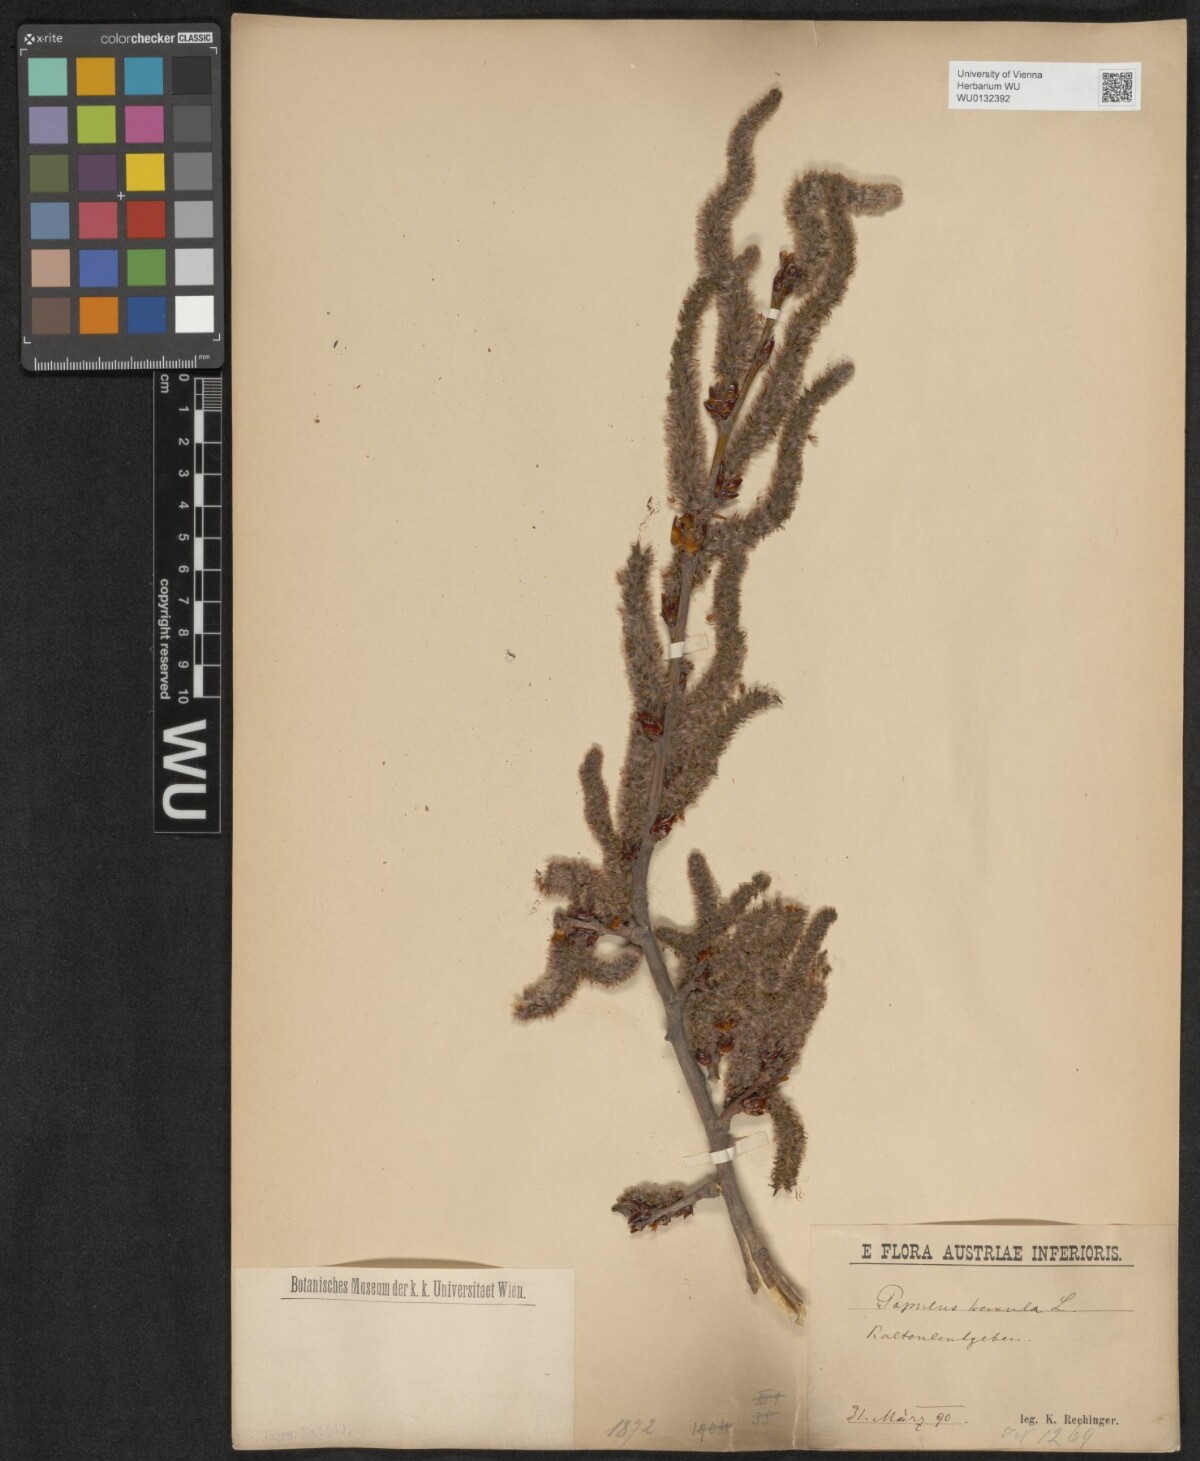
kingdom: Plantae
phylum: Tracheophyta
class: Magnoliopsida
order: Malpighiales
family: Salicaceae
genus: Populus
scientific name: Populus tremula
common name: European aspen
